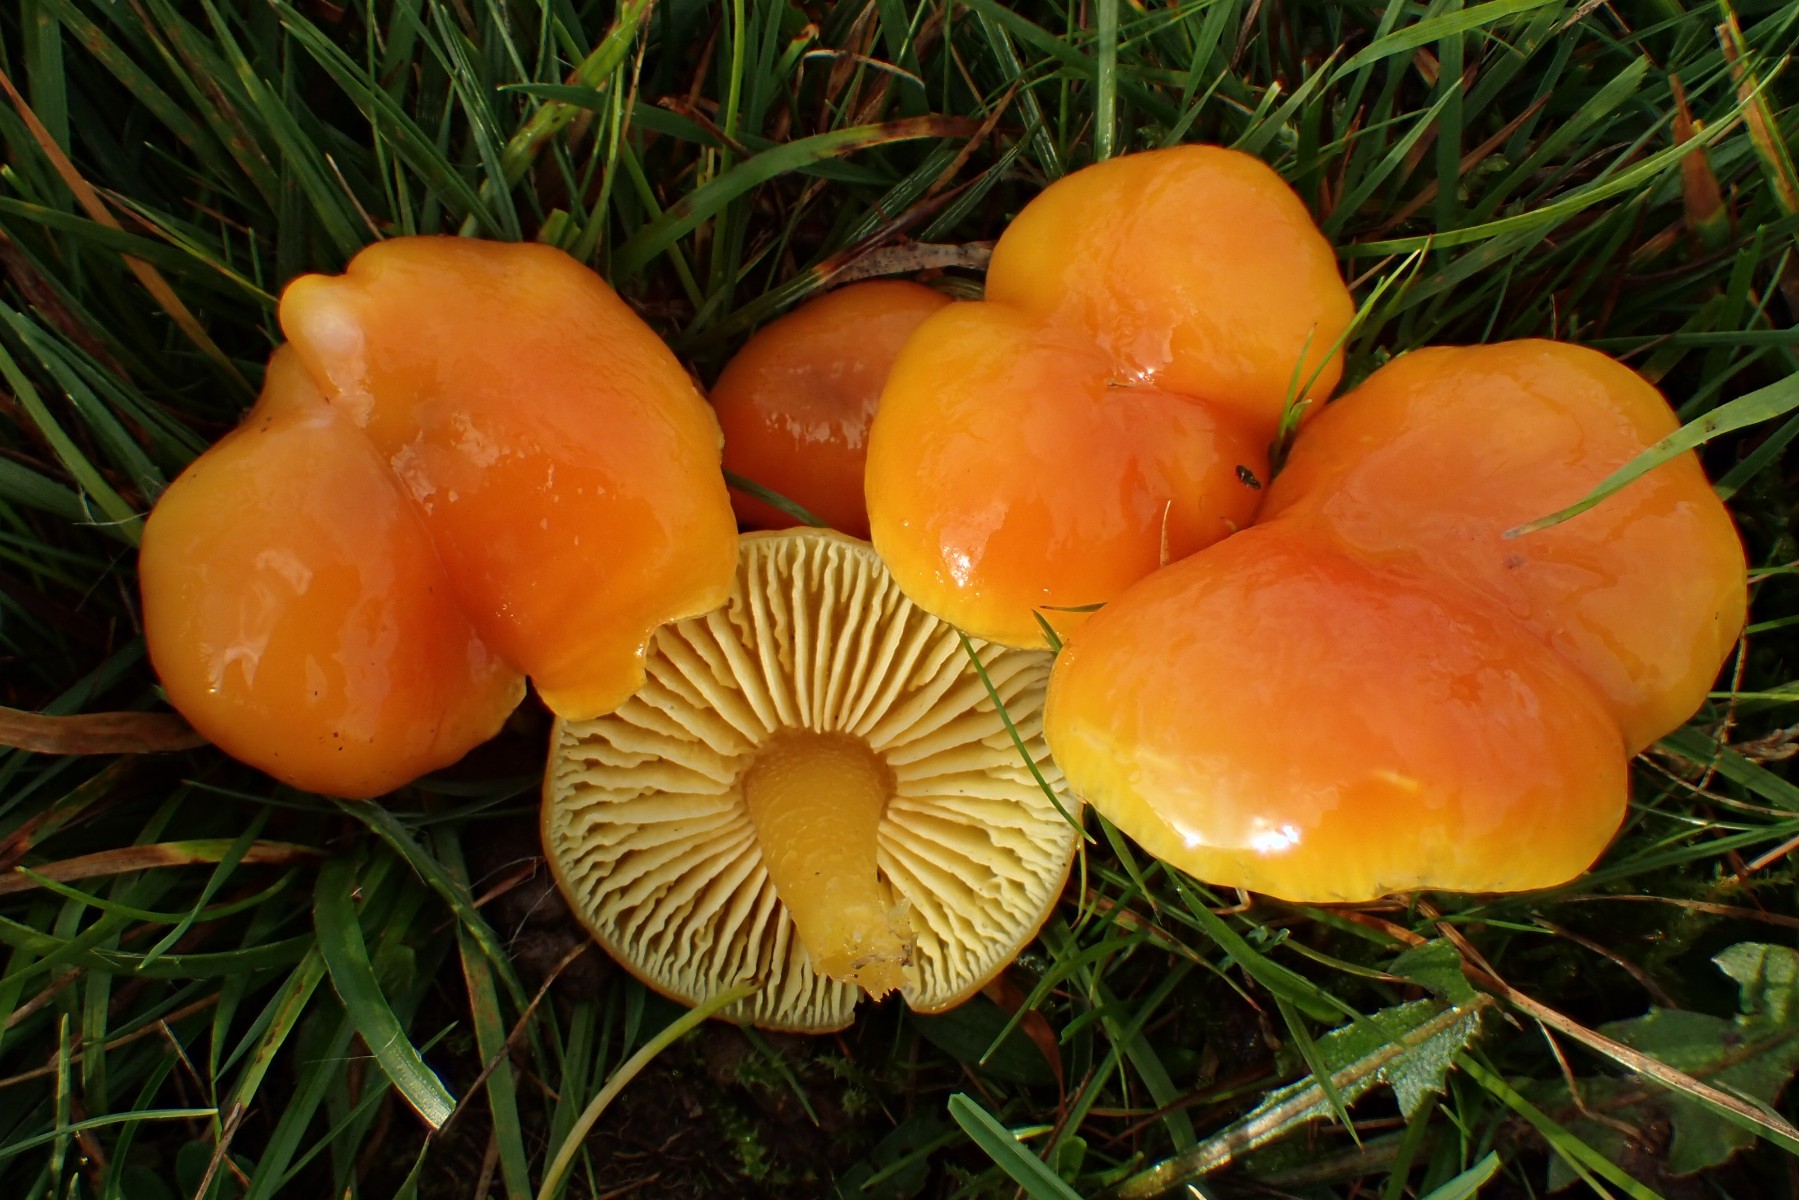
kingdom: Fungi
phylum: Basidiomycota
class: Agaricomycetes
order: Agaricales
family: Hygrophoraceae
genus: Hygrocybe
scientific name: Hygrocybe chlorophana
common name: gul vokshat
